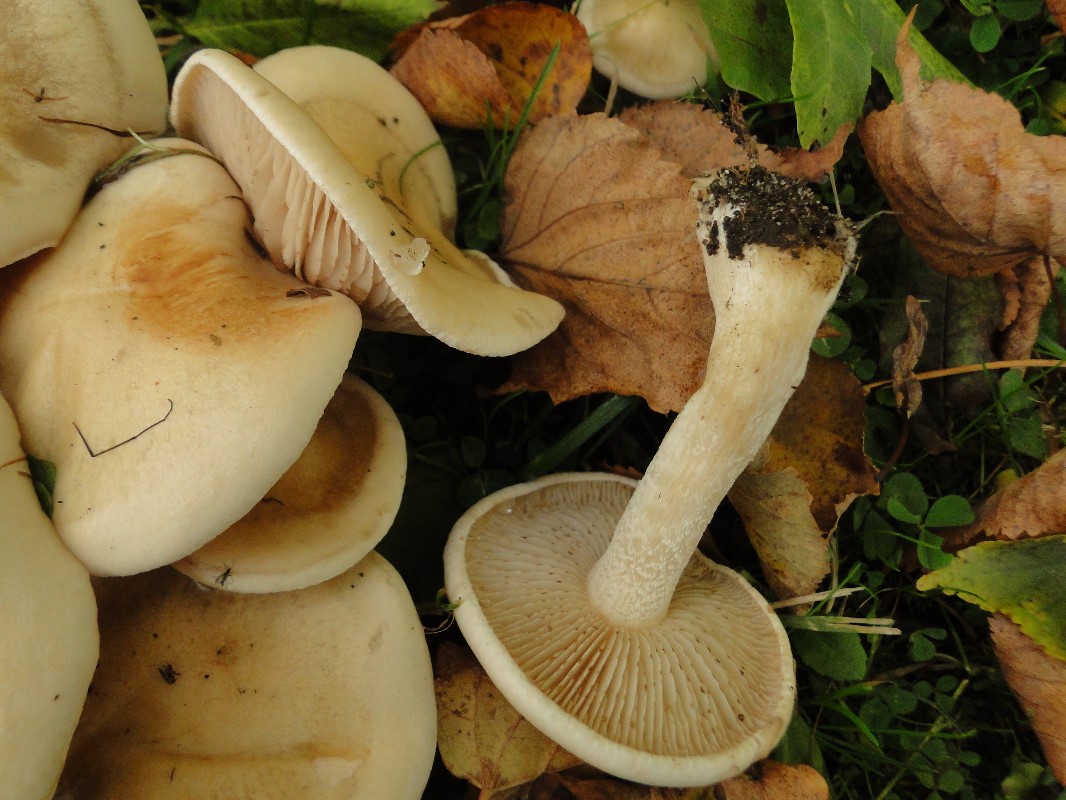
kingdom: Fungi
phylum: Basidiomycota
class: Agaricomycetes
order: Agaricales
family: Hymenogastraceae
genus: Hebeloma
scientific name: Hebeloma crustuliniforme
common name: almindelig tåreblad
